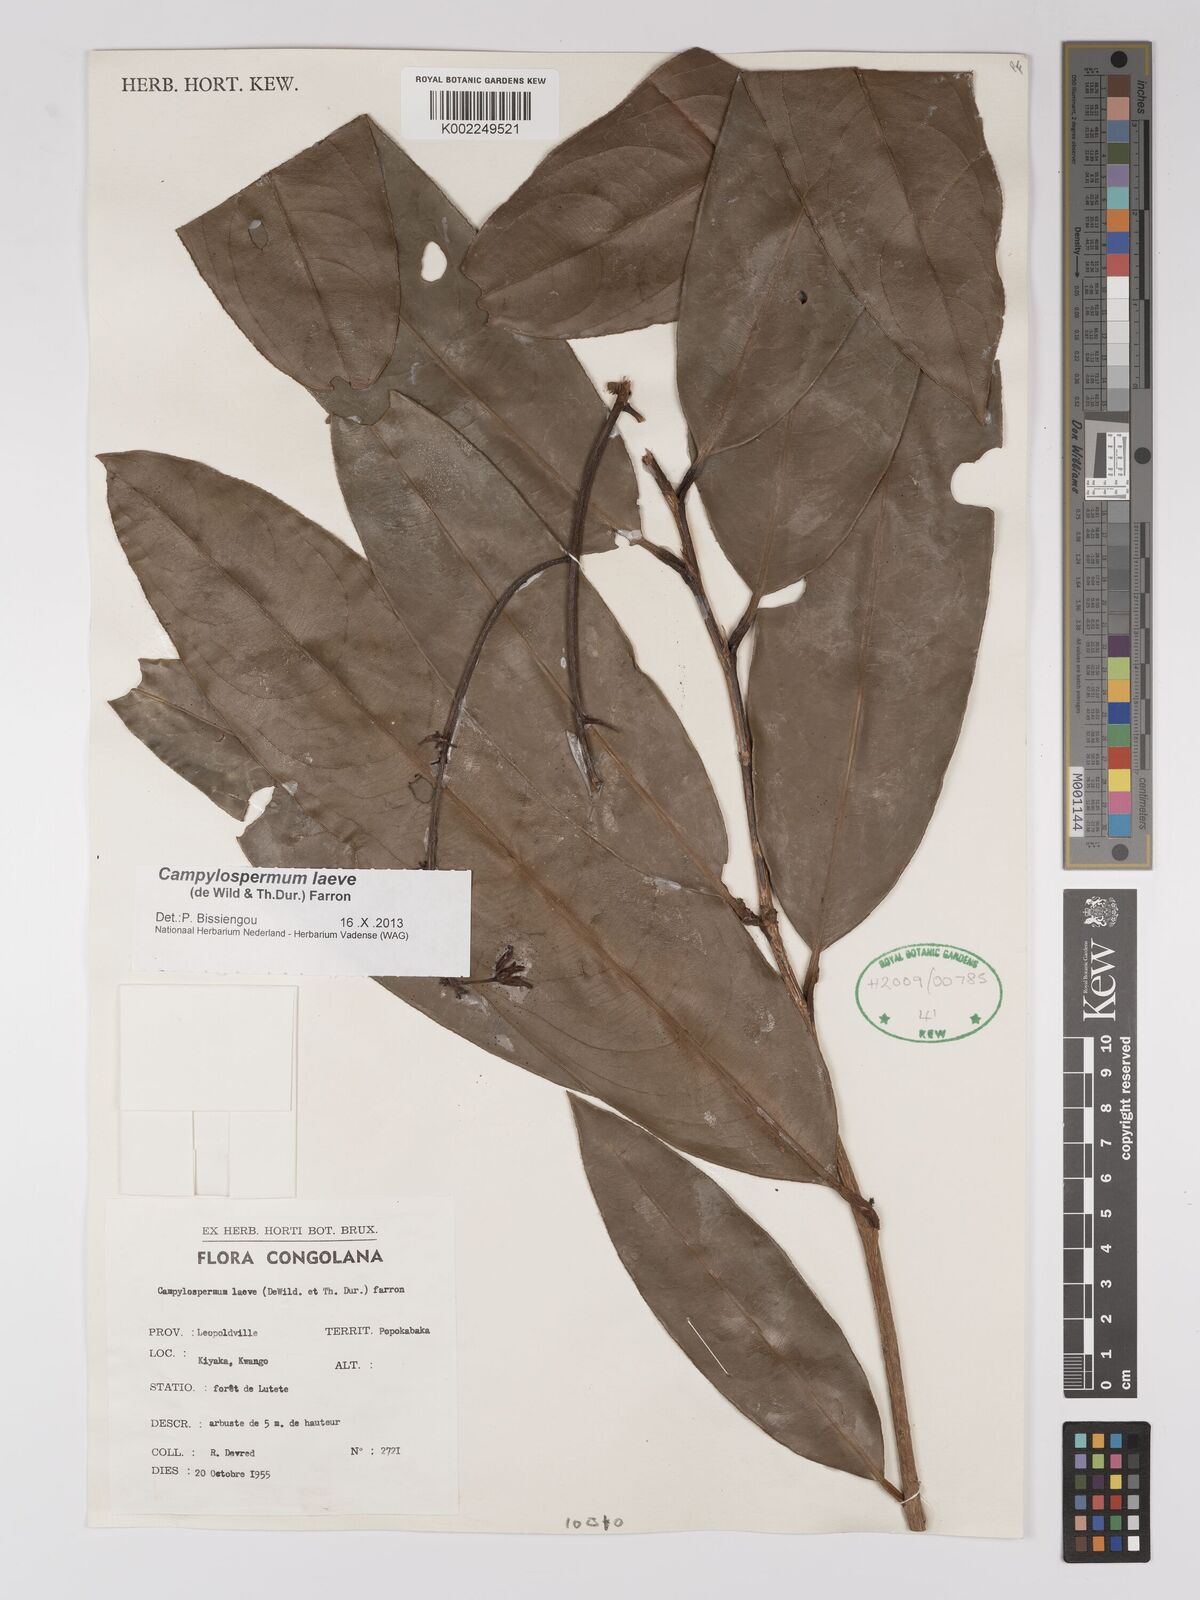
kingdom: Plantae
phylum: Tracheophyta
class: Magnoliopsida
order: Malpighiales
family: Ochnaceae
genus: Campylospermum
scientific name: Campylospermum laeve
